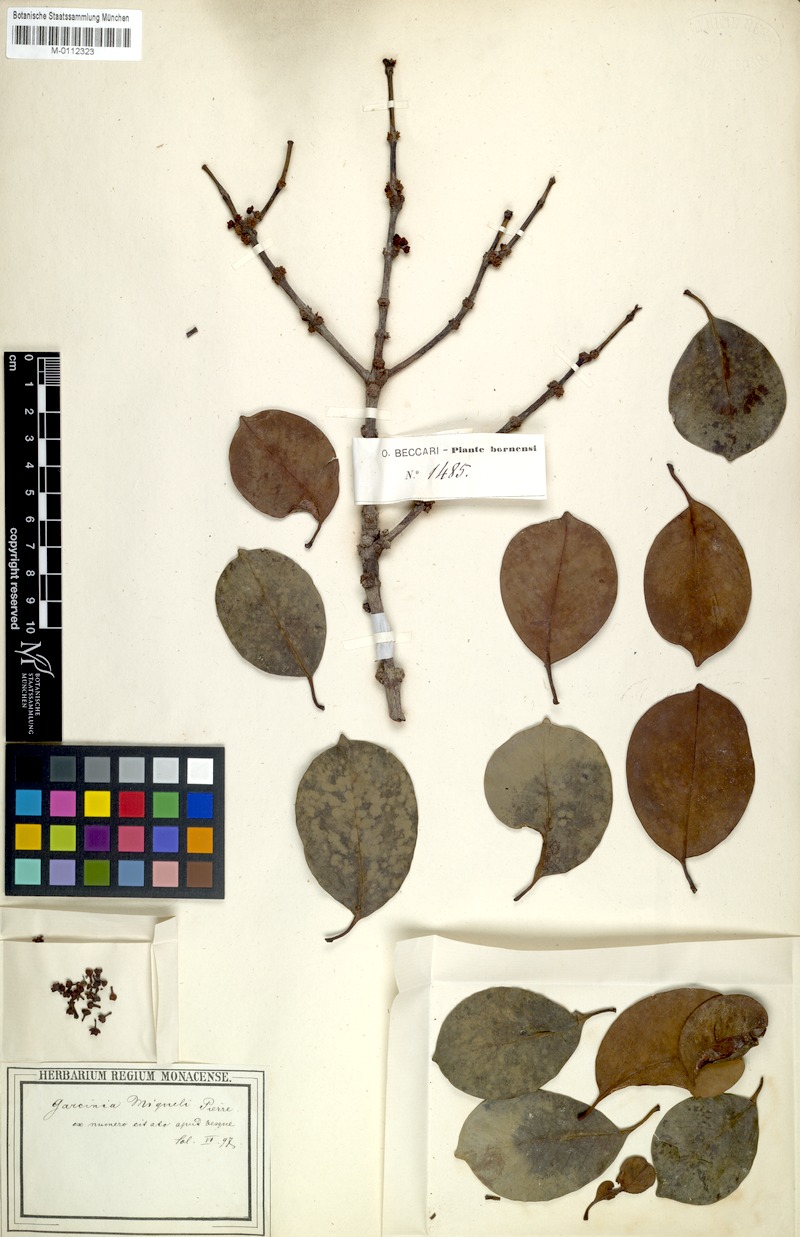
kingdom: Plantae
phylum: Tracheophyta
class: Magnoliopsida
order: Malpighiales
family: Clusiaceae
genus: Garcinia
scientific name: Garcinia miquelii
